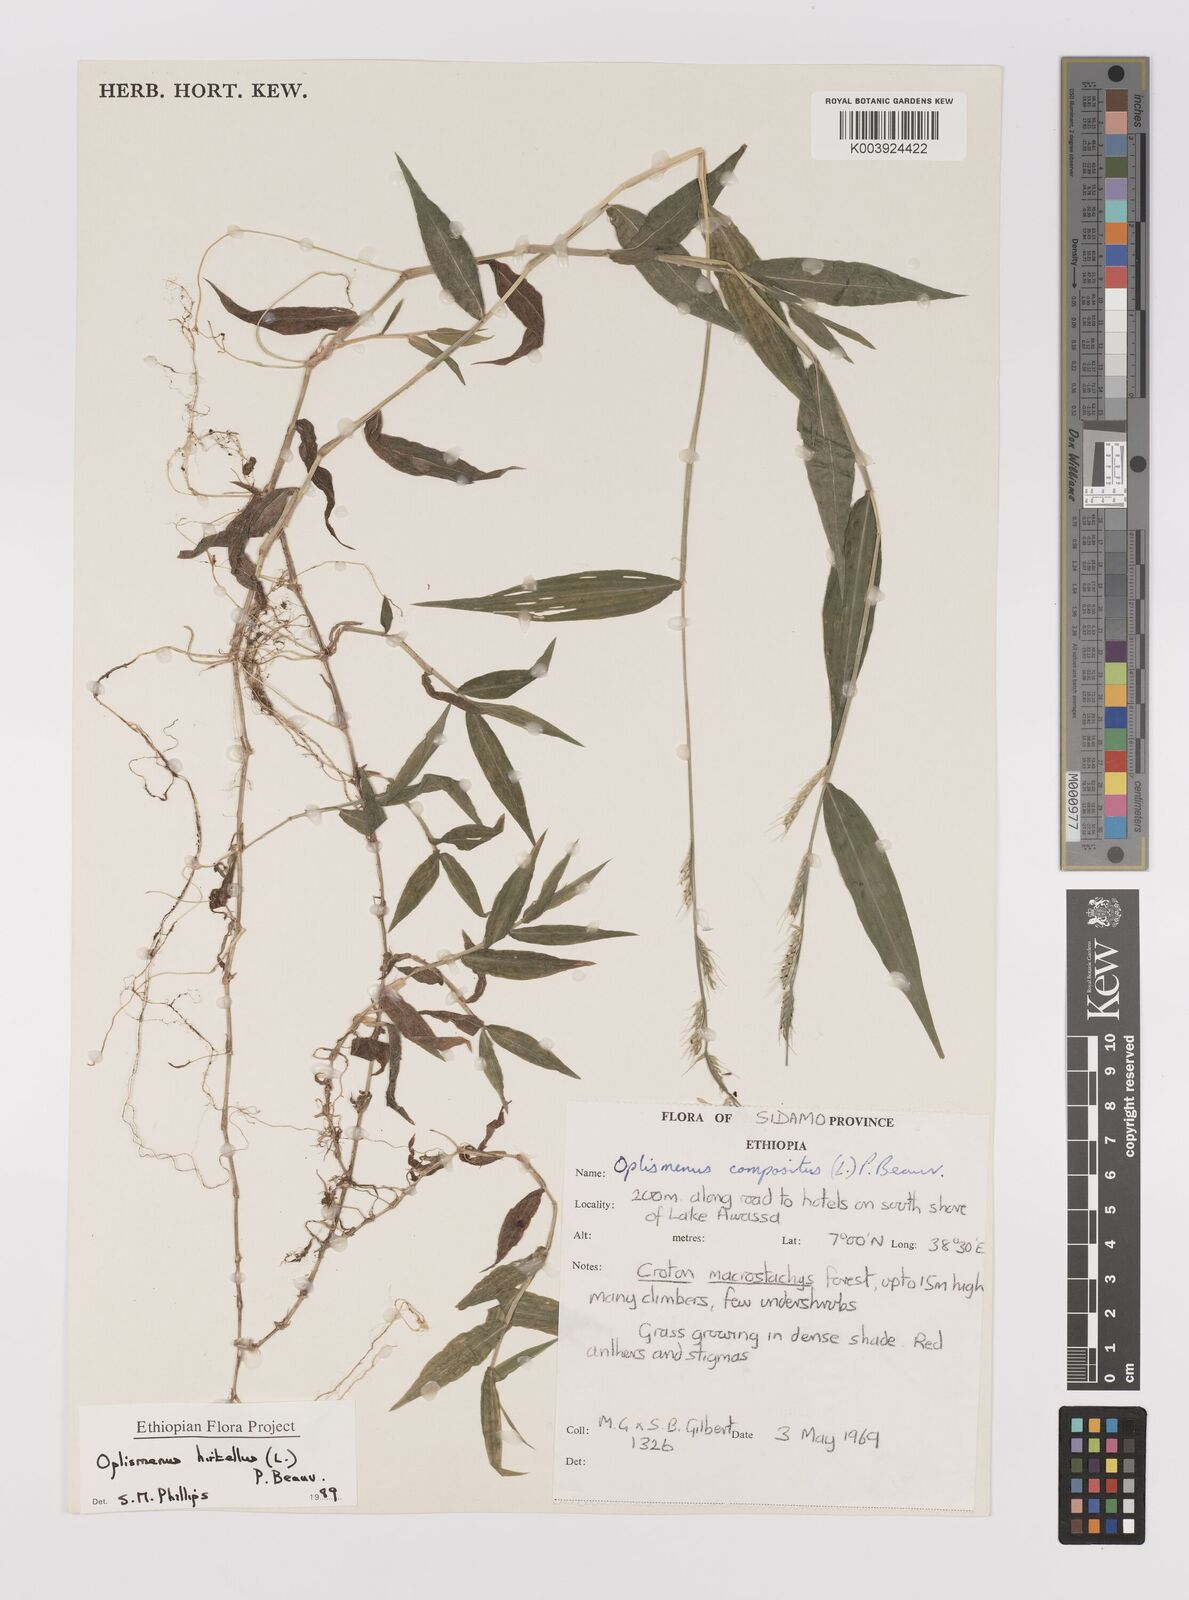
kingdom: Plantae
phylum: Tracheophyta
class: Liliopsida
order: Poales
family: Poaceae
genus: Oplismenus
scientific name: Oplismenus hirtellus
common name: Basketgrass
